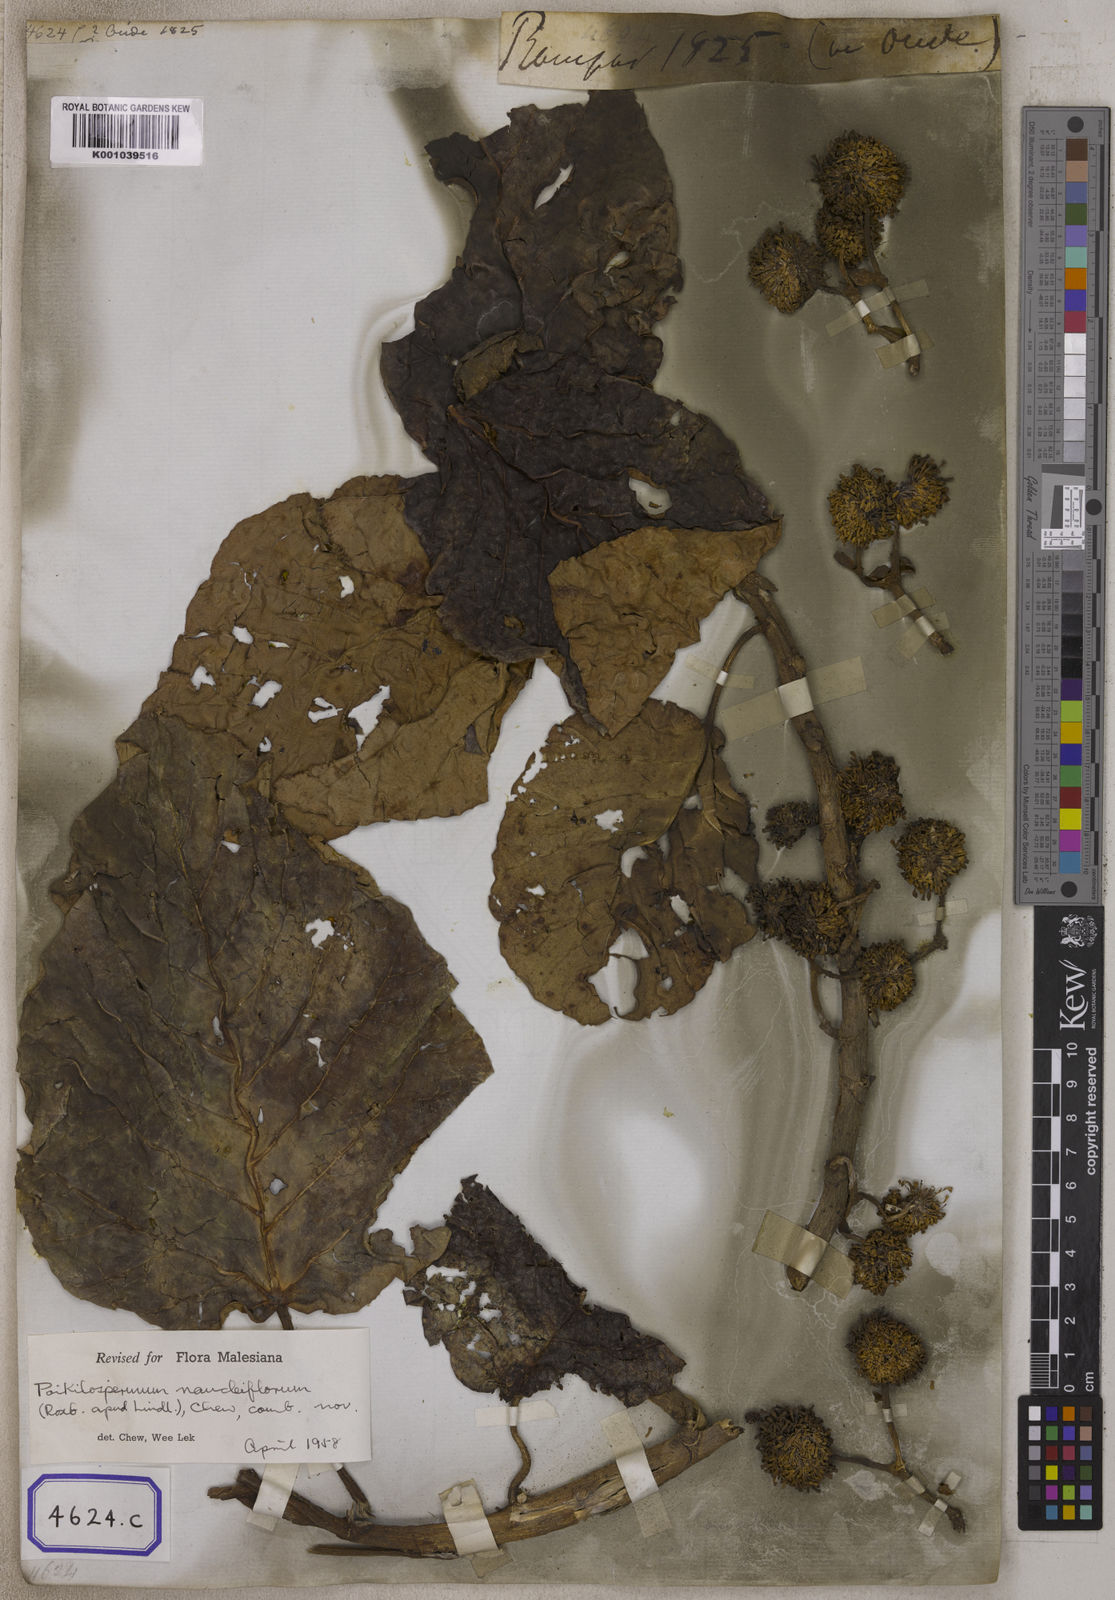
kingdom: Plantae
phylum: Tracheophyta
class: Magnoliopsida
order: Rosales
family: Urticaceae
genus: Urtica
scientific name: Urtica naucliflora
